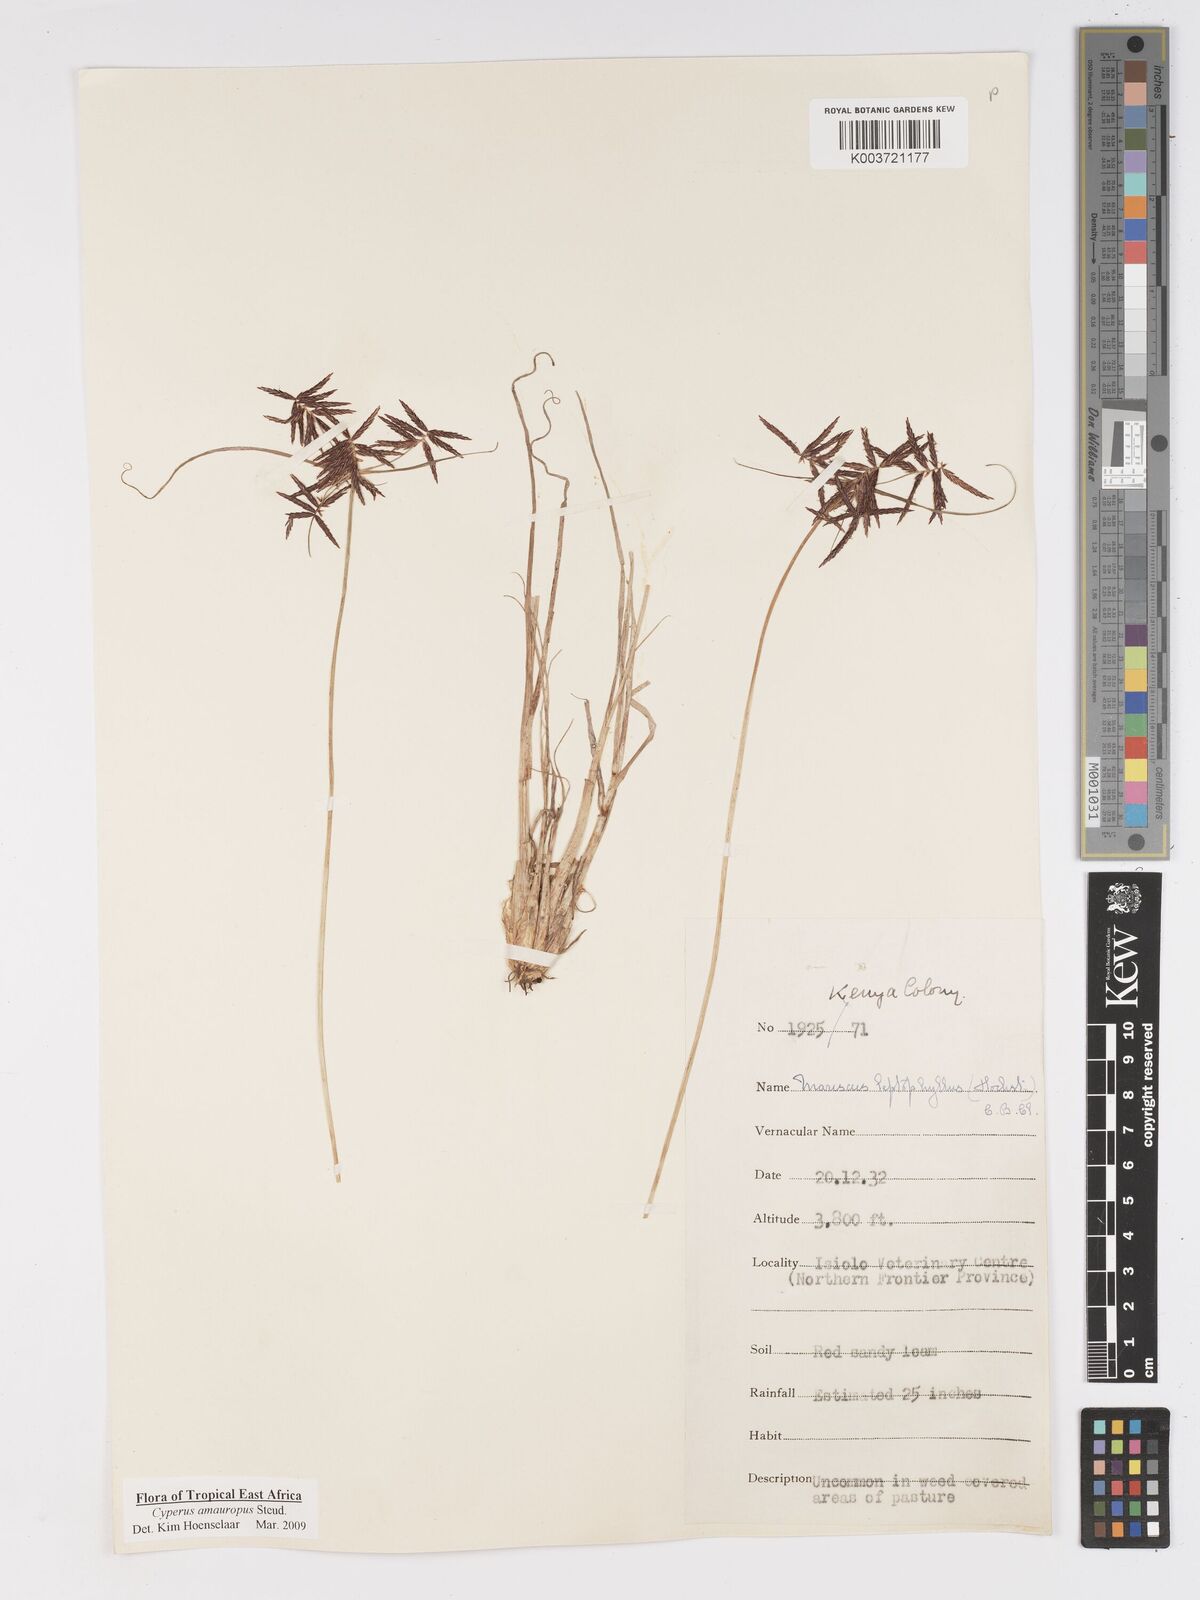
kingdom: Plantae
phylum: Tracheophyta
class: Liliopsida
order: Poales
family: Cyperaceae
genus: Cyperus
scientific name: Cyperus amauropus
